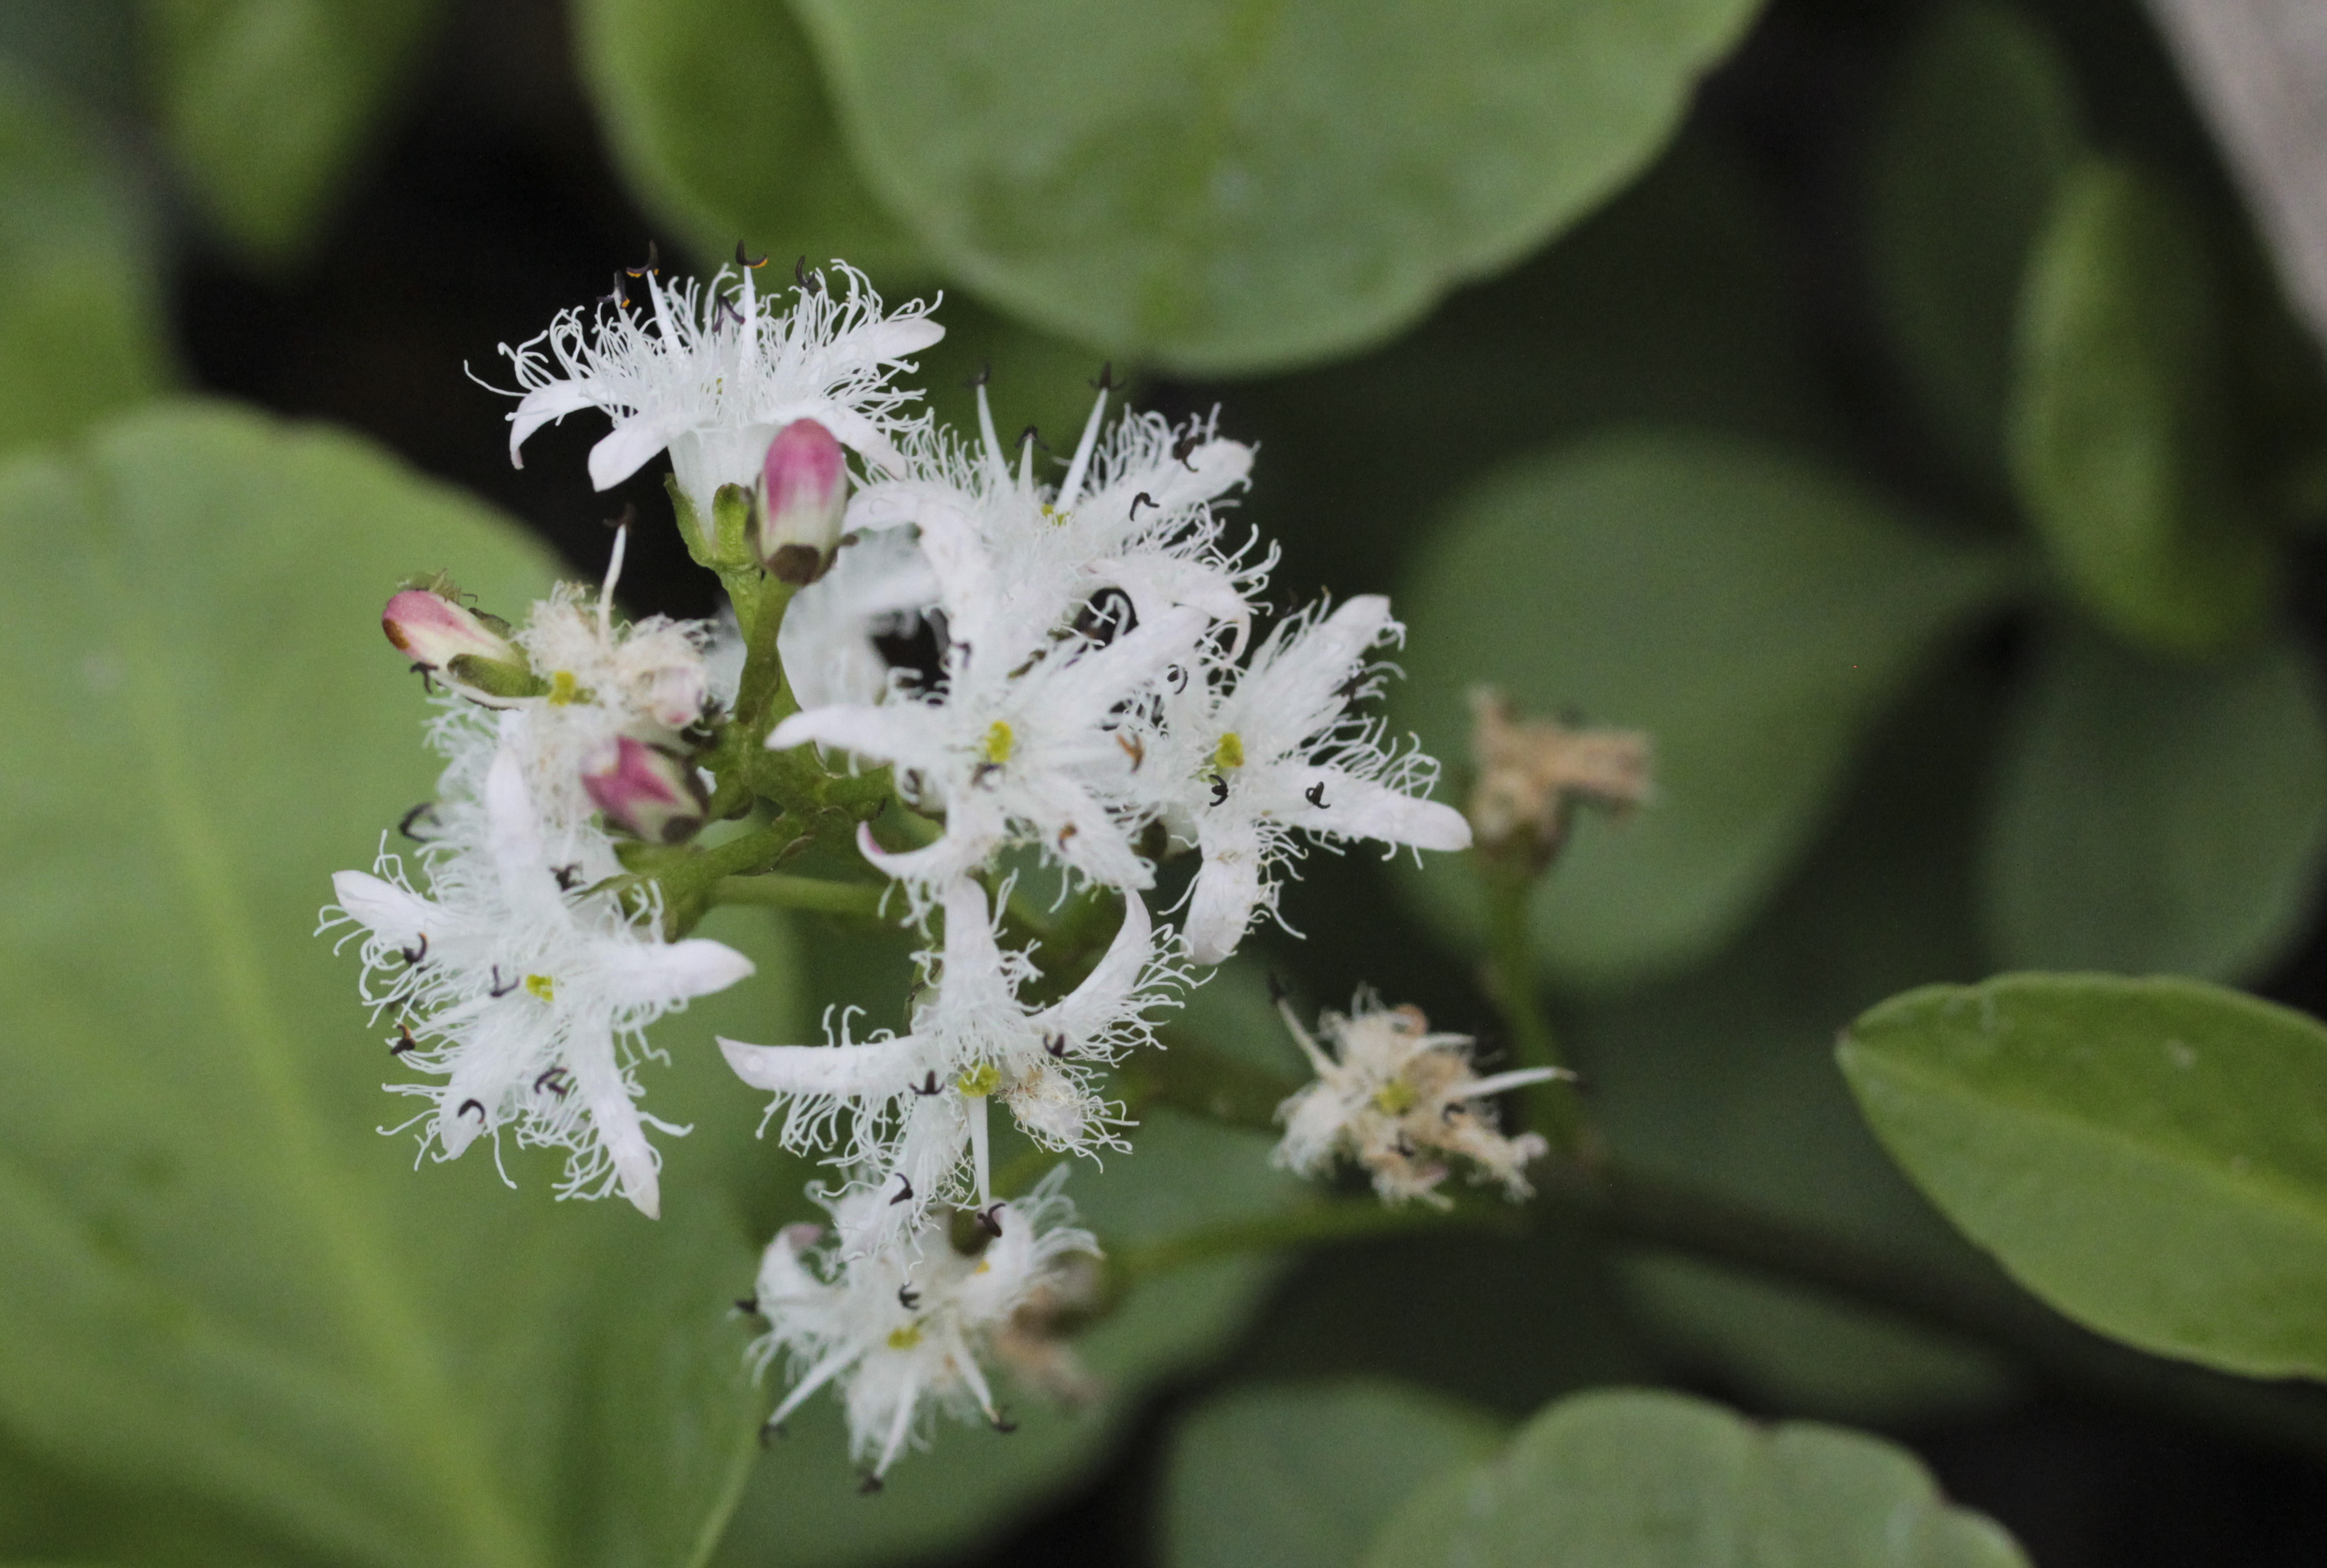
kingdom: Plantae
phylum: Tracheophyta
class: Magnoliopsida
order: Asterales
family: Menyanthaceae
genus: Menyanthes
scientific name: Menyanthes trifoliata
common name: Bogbean
